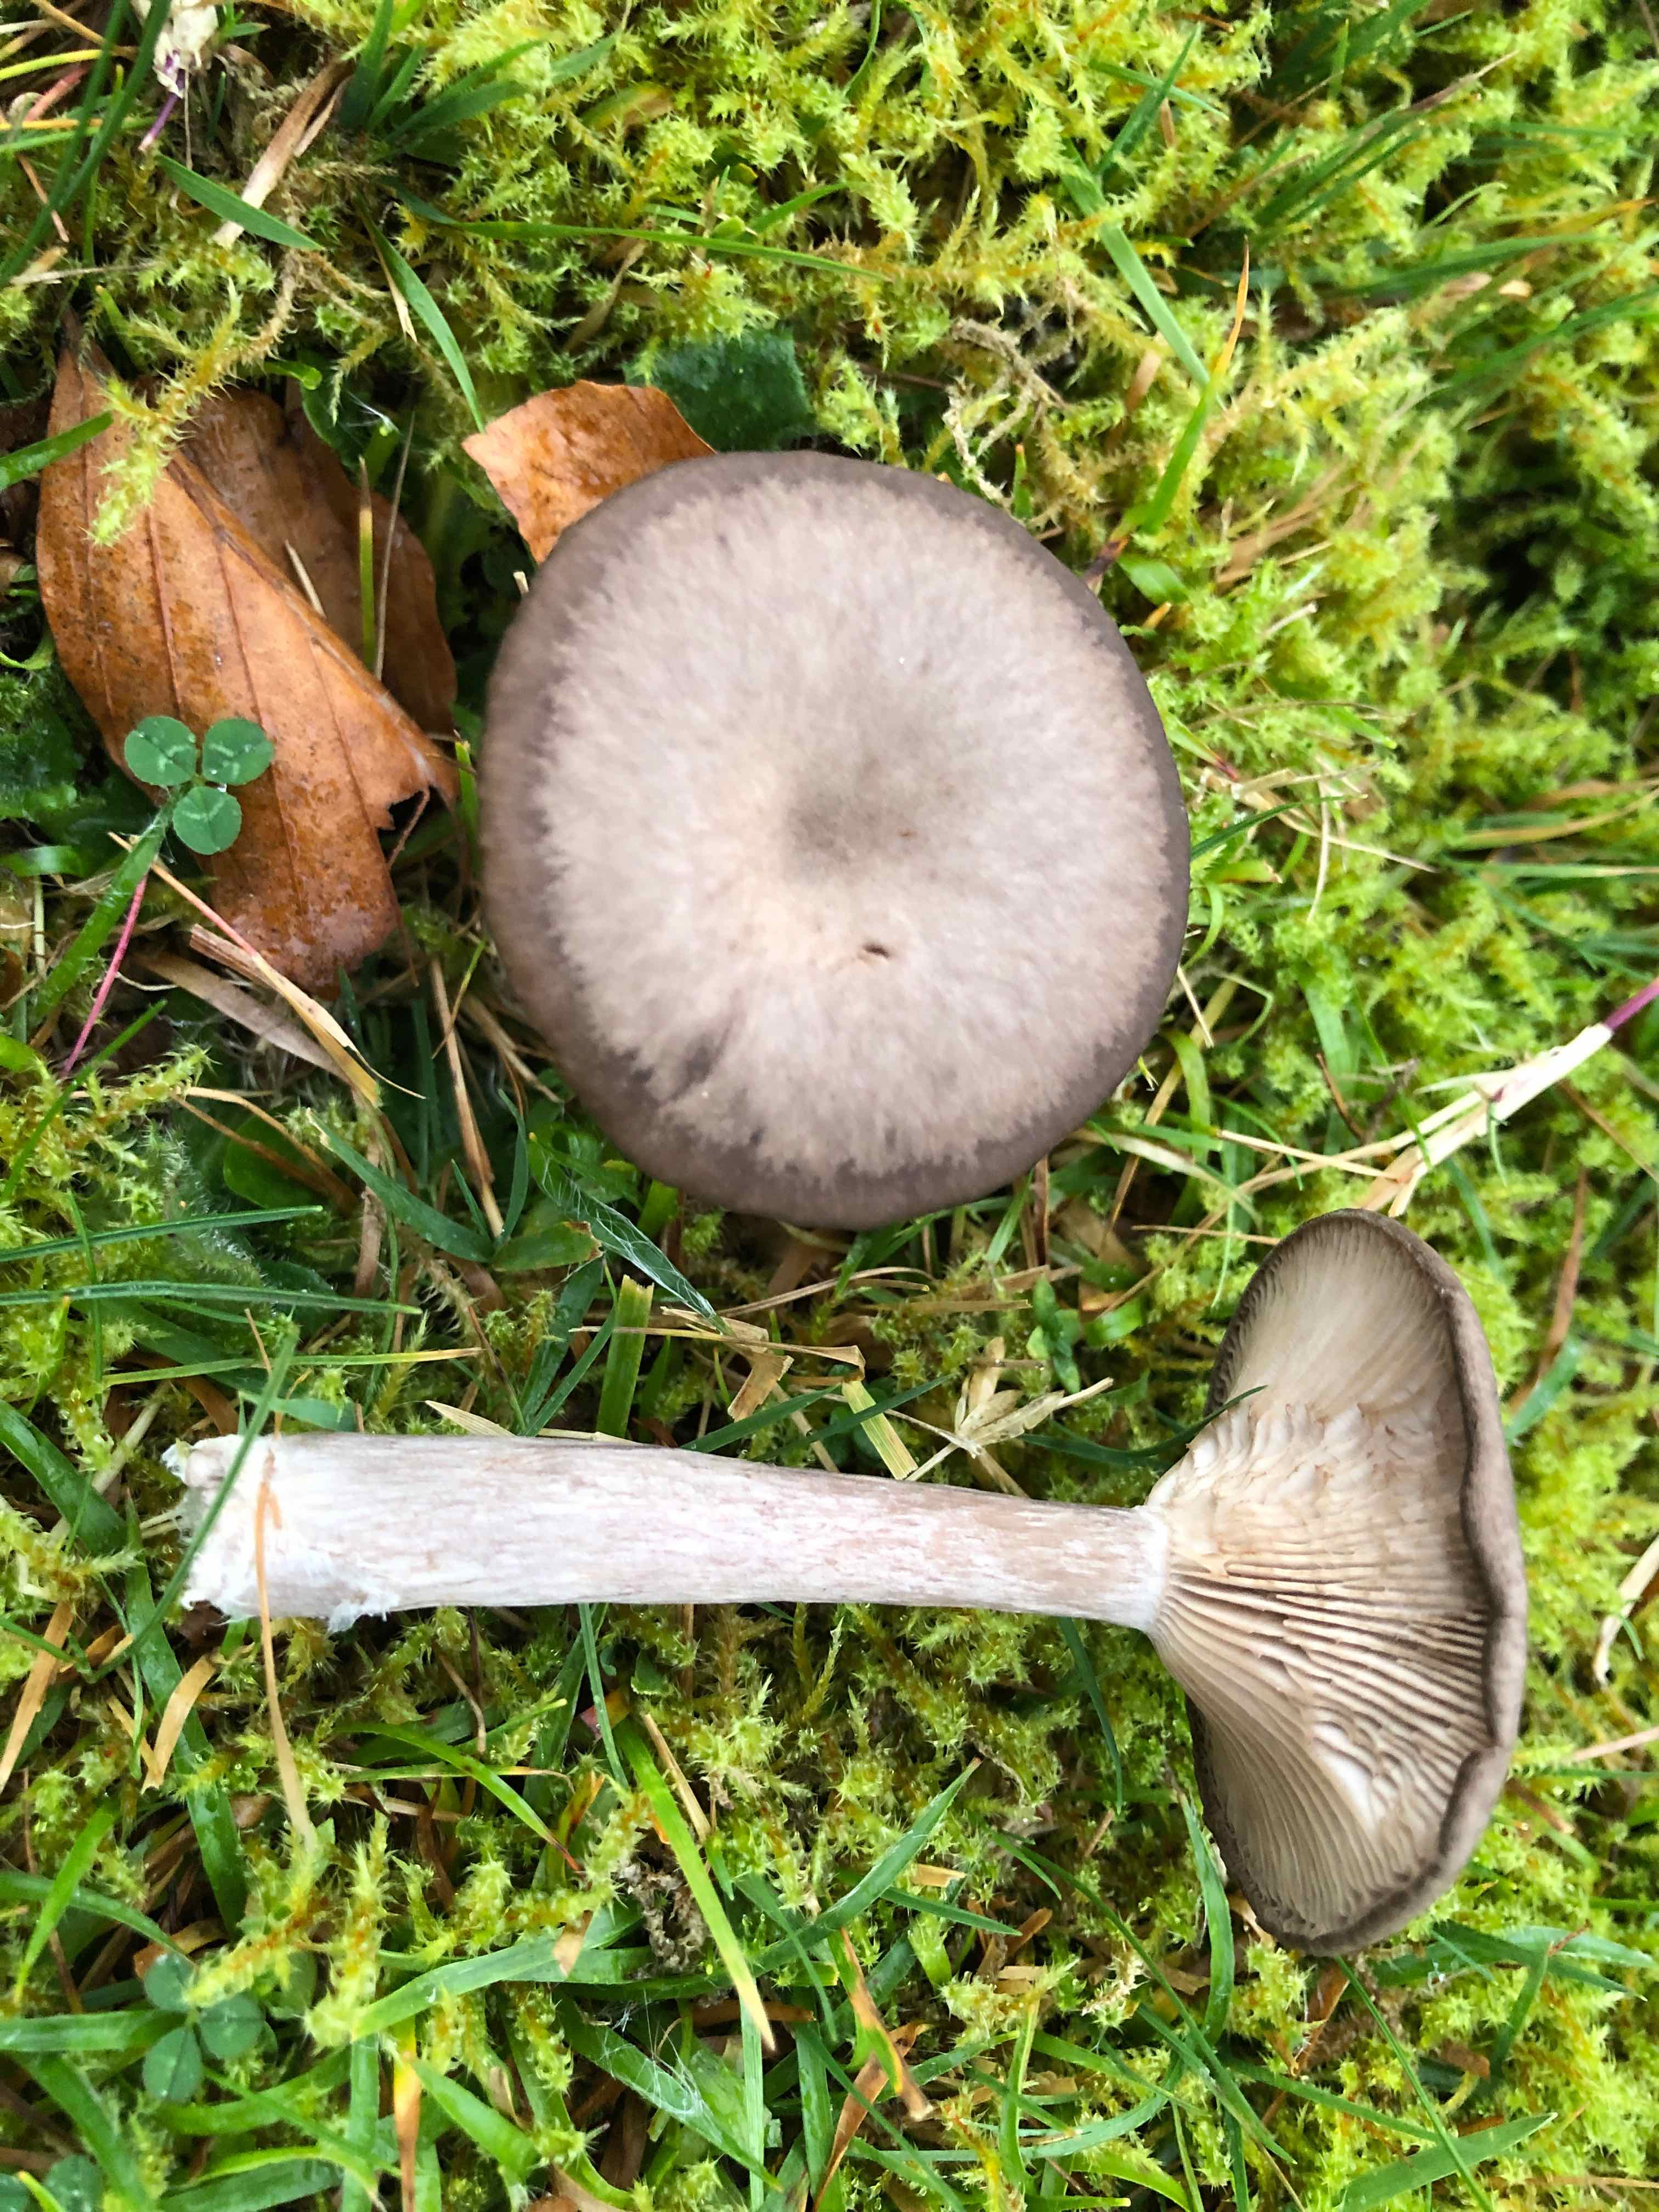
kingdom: Fungi
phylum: Basidiomycota
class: Agaricomycetes
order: Agaricales
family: Pseudoclitocybaceae
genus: Pseudoclitocybe
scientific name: Pseudoclitocybe expallens
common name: lille bægertragthat
